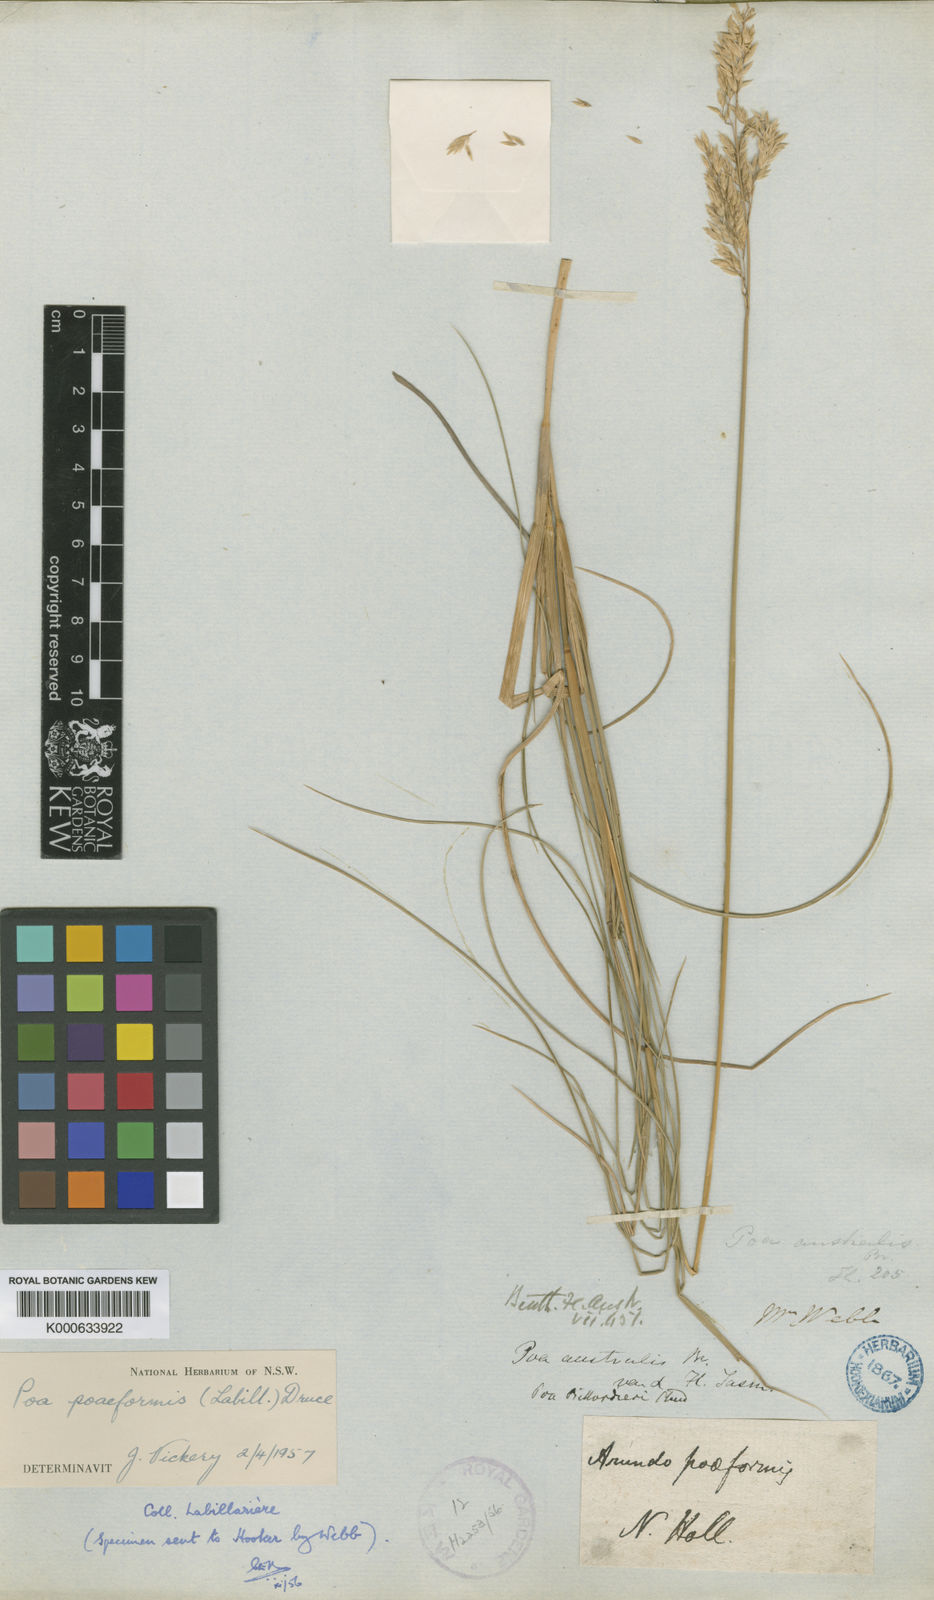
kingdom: Plantae
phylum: Tracheophyta
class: Liliopsida
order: Poales
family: Poaceae
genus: Poa
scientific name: Poa poiformis
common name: Tussock poa
